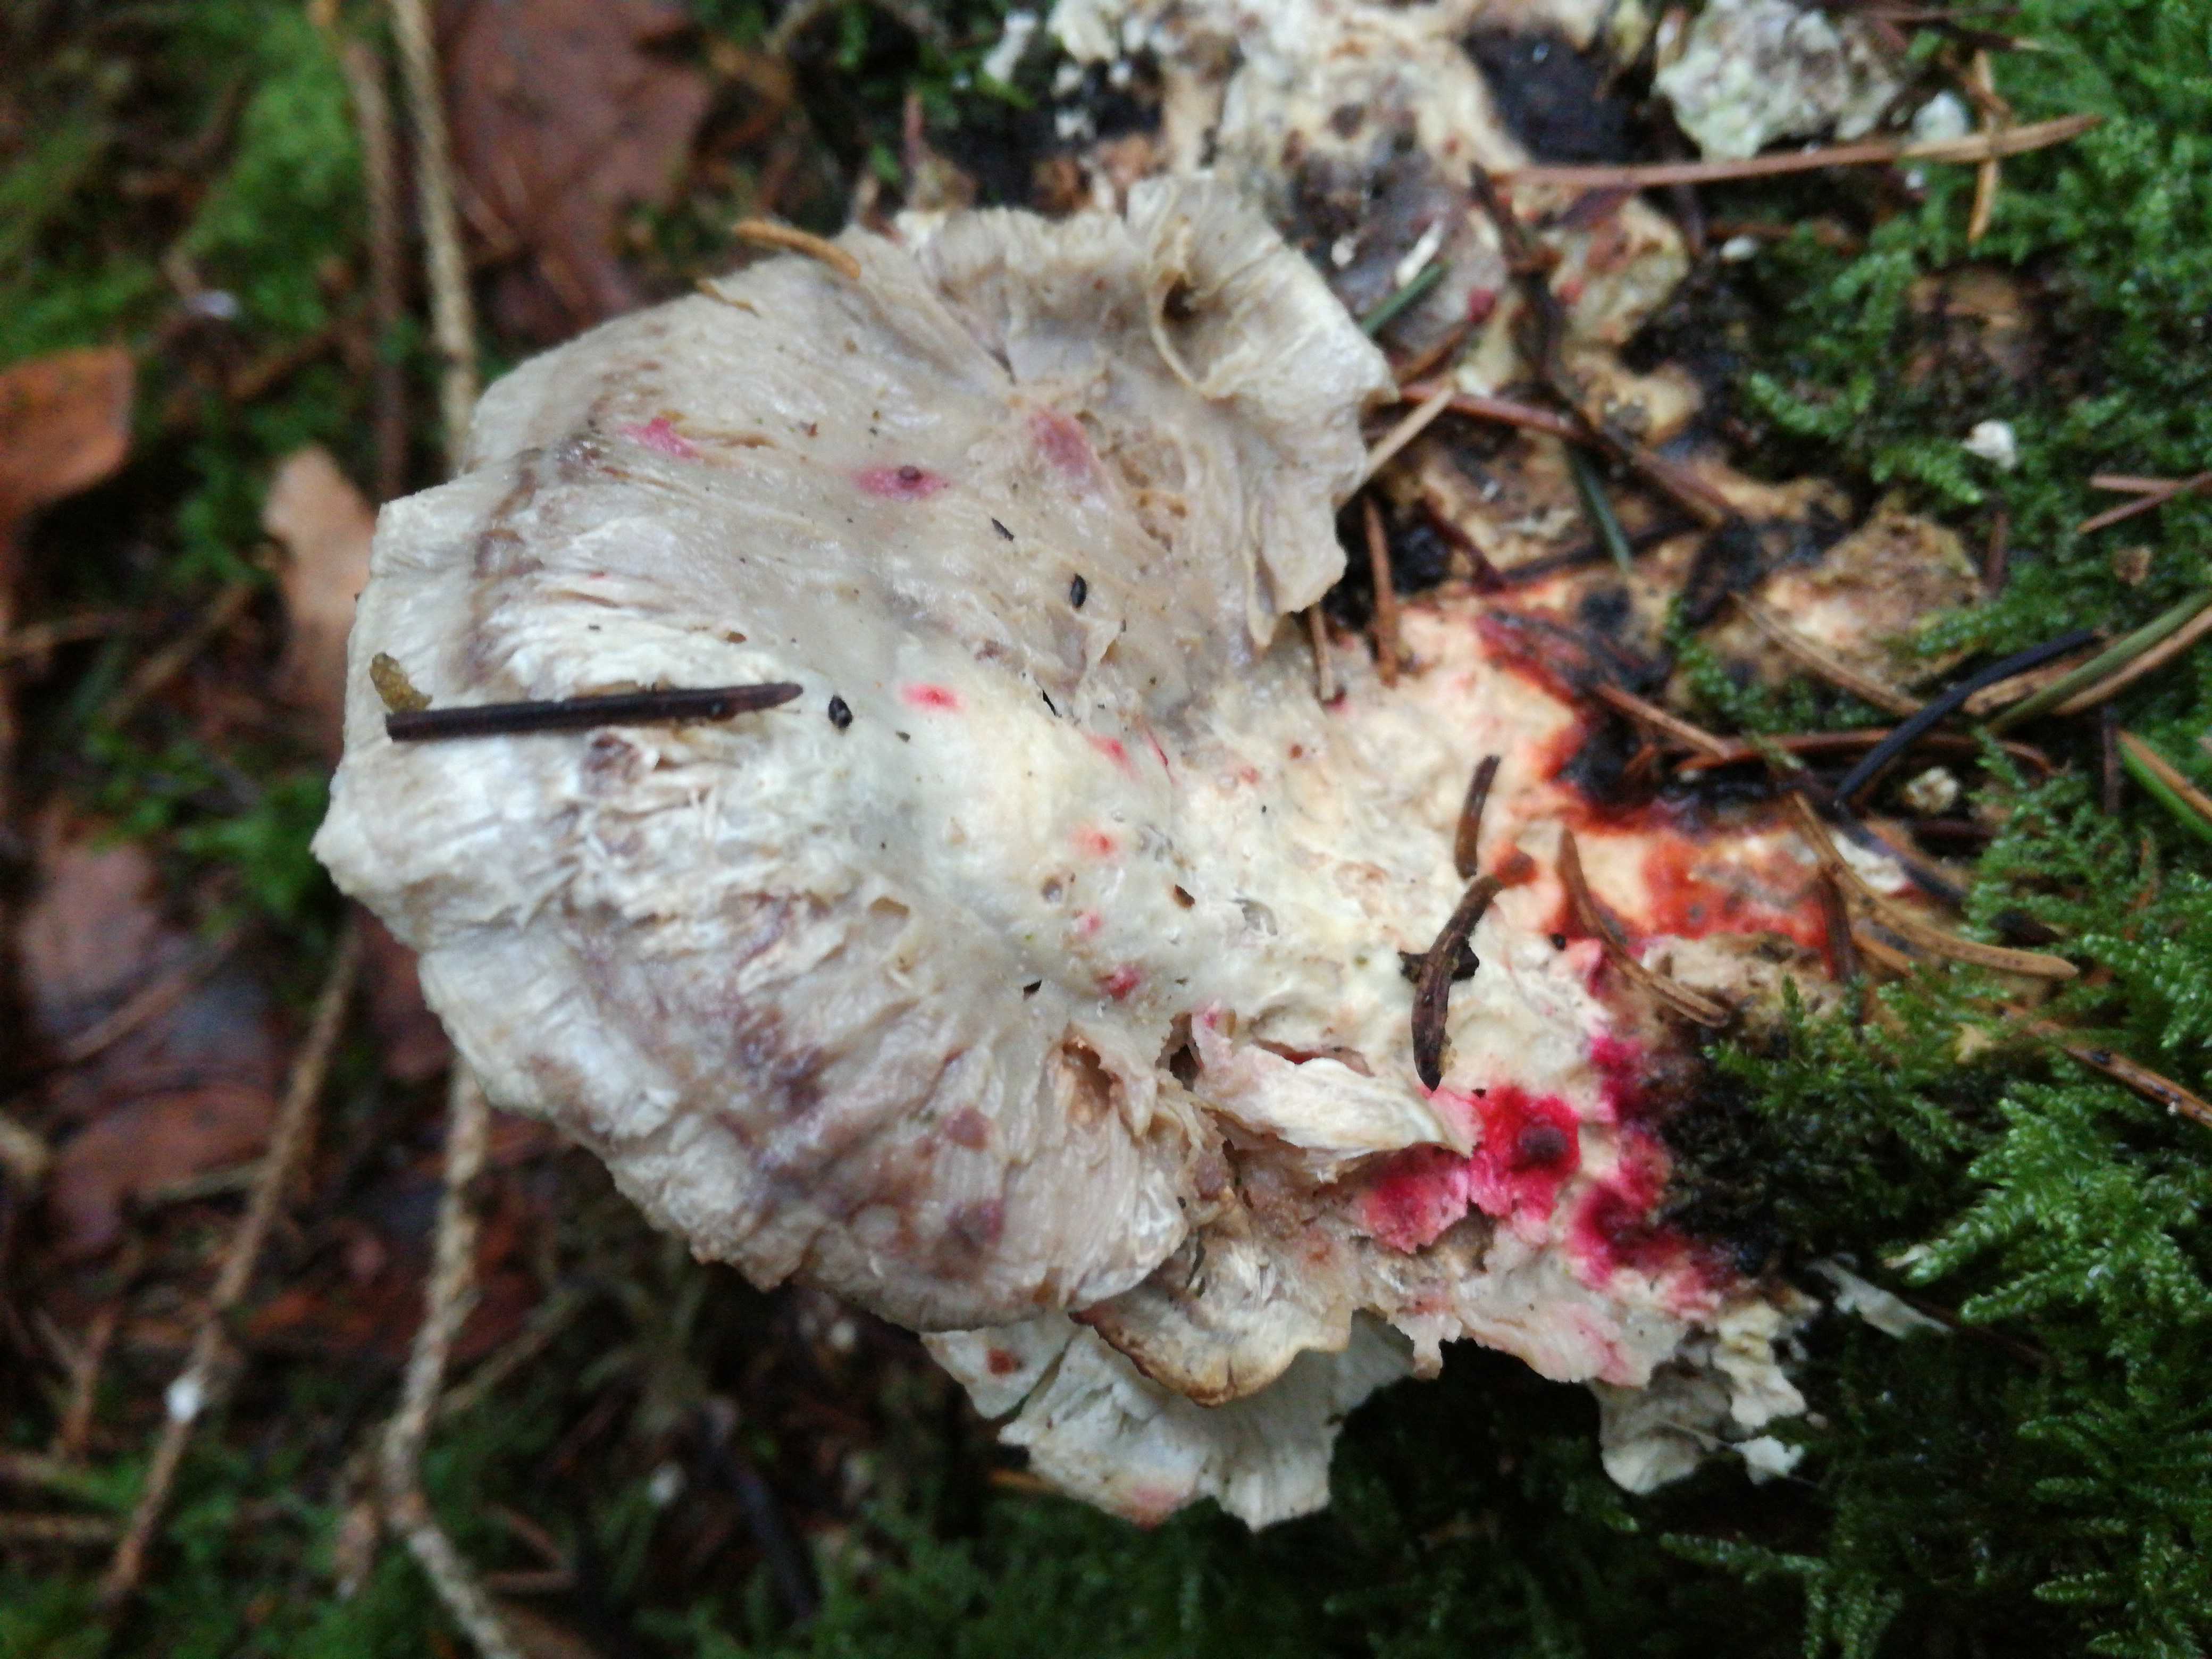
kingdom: Fungi
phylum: Basidiomycota
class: Agaricomycetes
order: Polyporales
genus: Amaropostia
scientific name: Amaropostia stiptica
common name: bitter kødporesvamp
